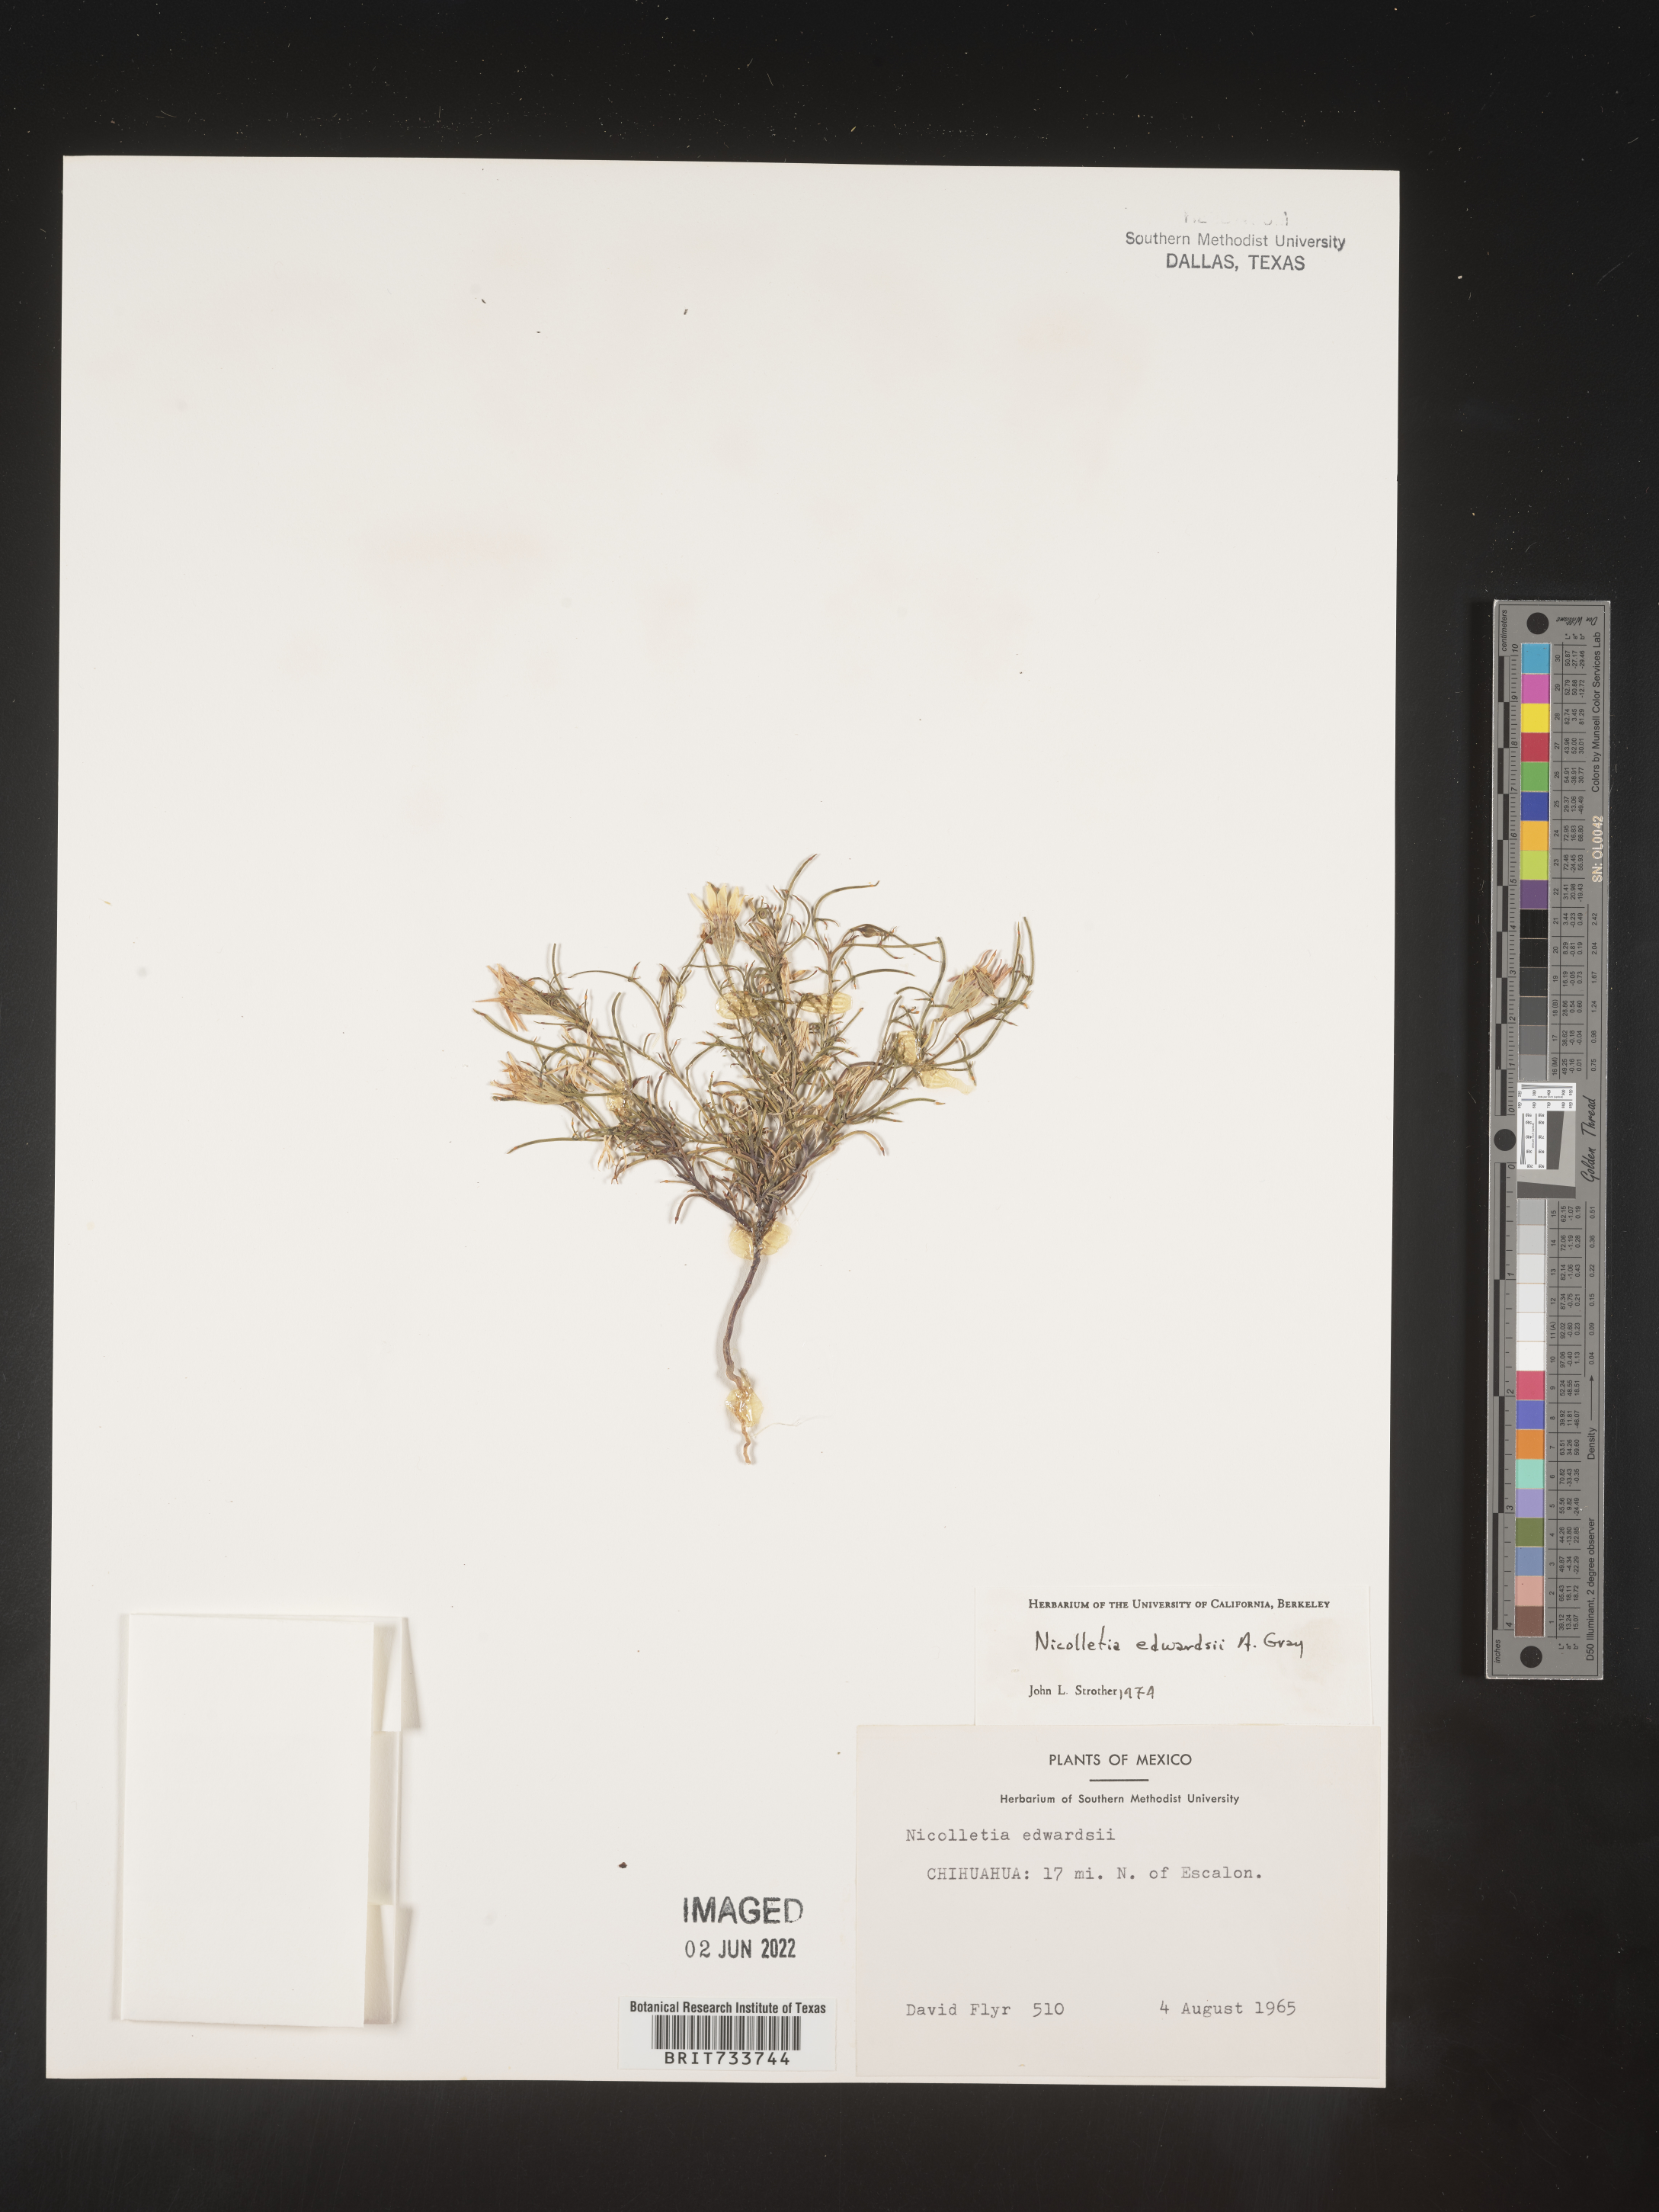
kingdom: Plantae
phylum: Tracheophyta
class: Magnoliopsida
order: Asterales
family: Asteraceae
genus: Nicolletia
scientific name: Nicolletia
